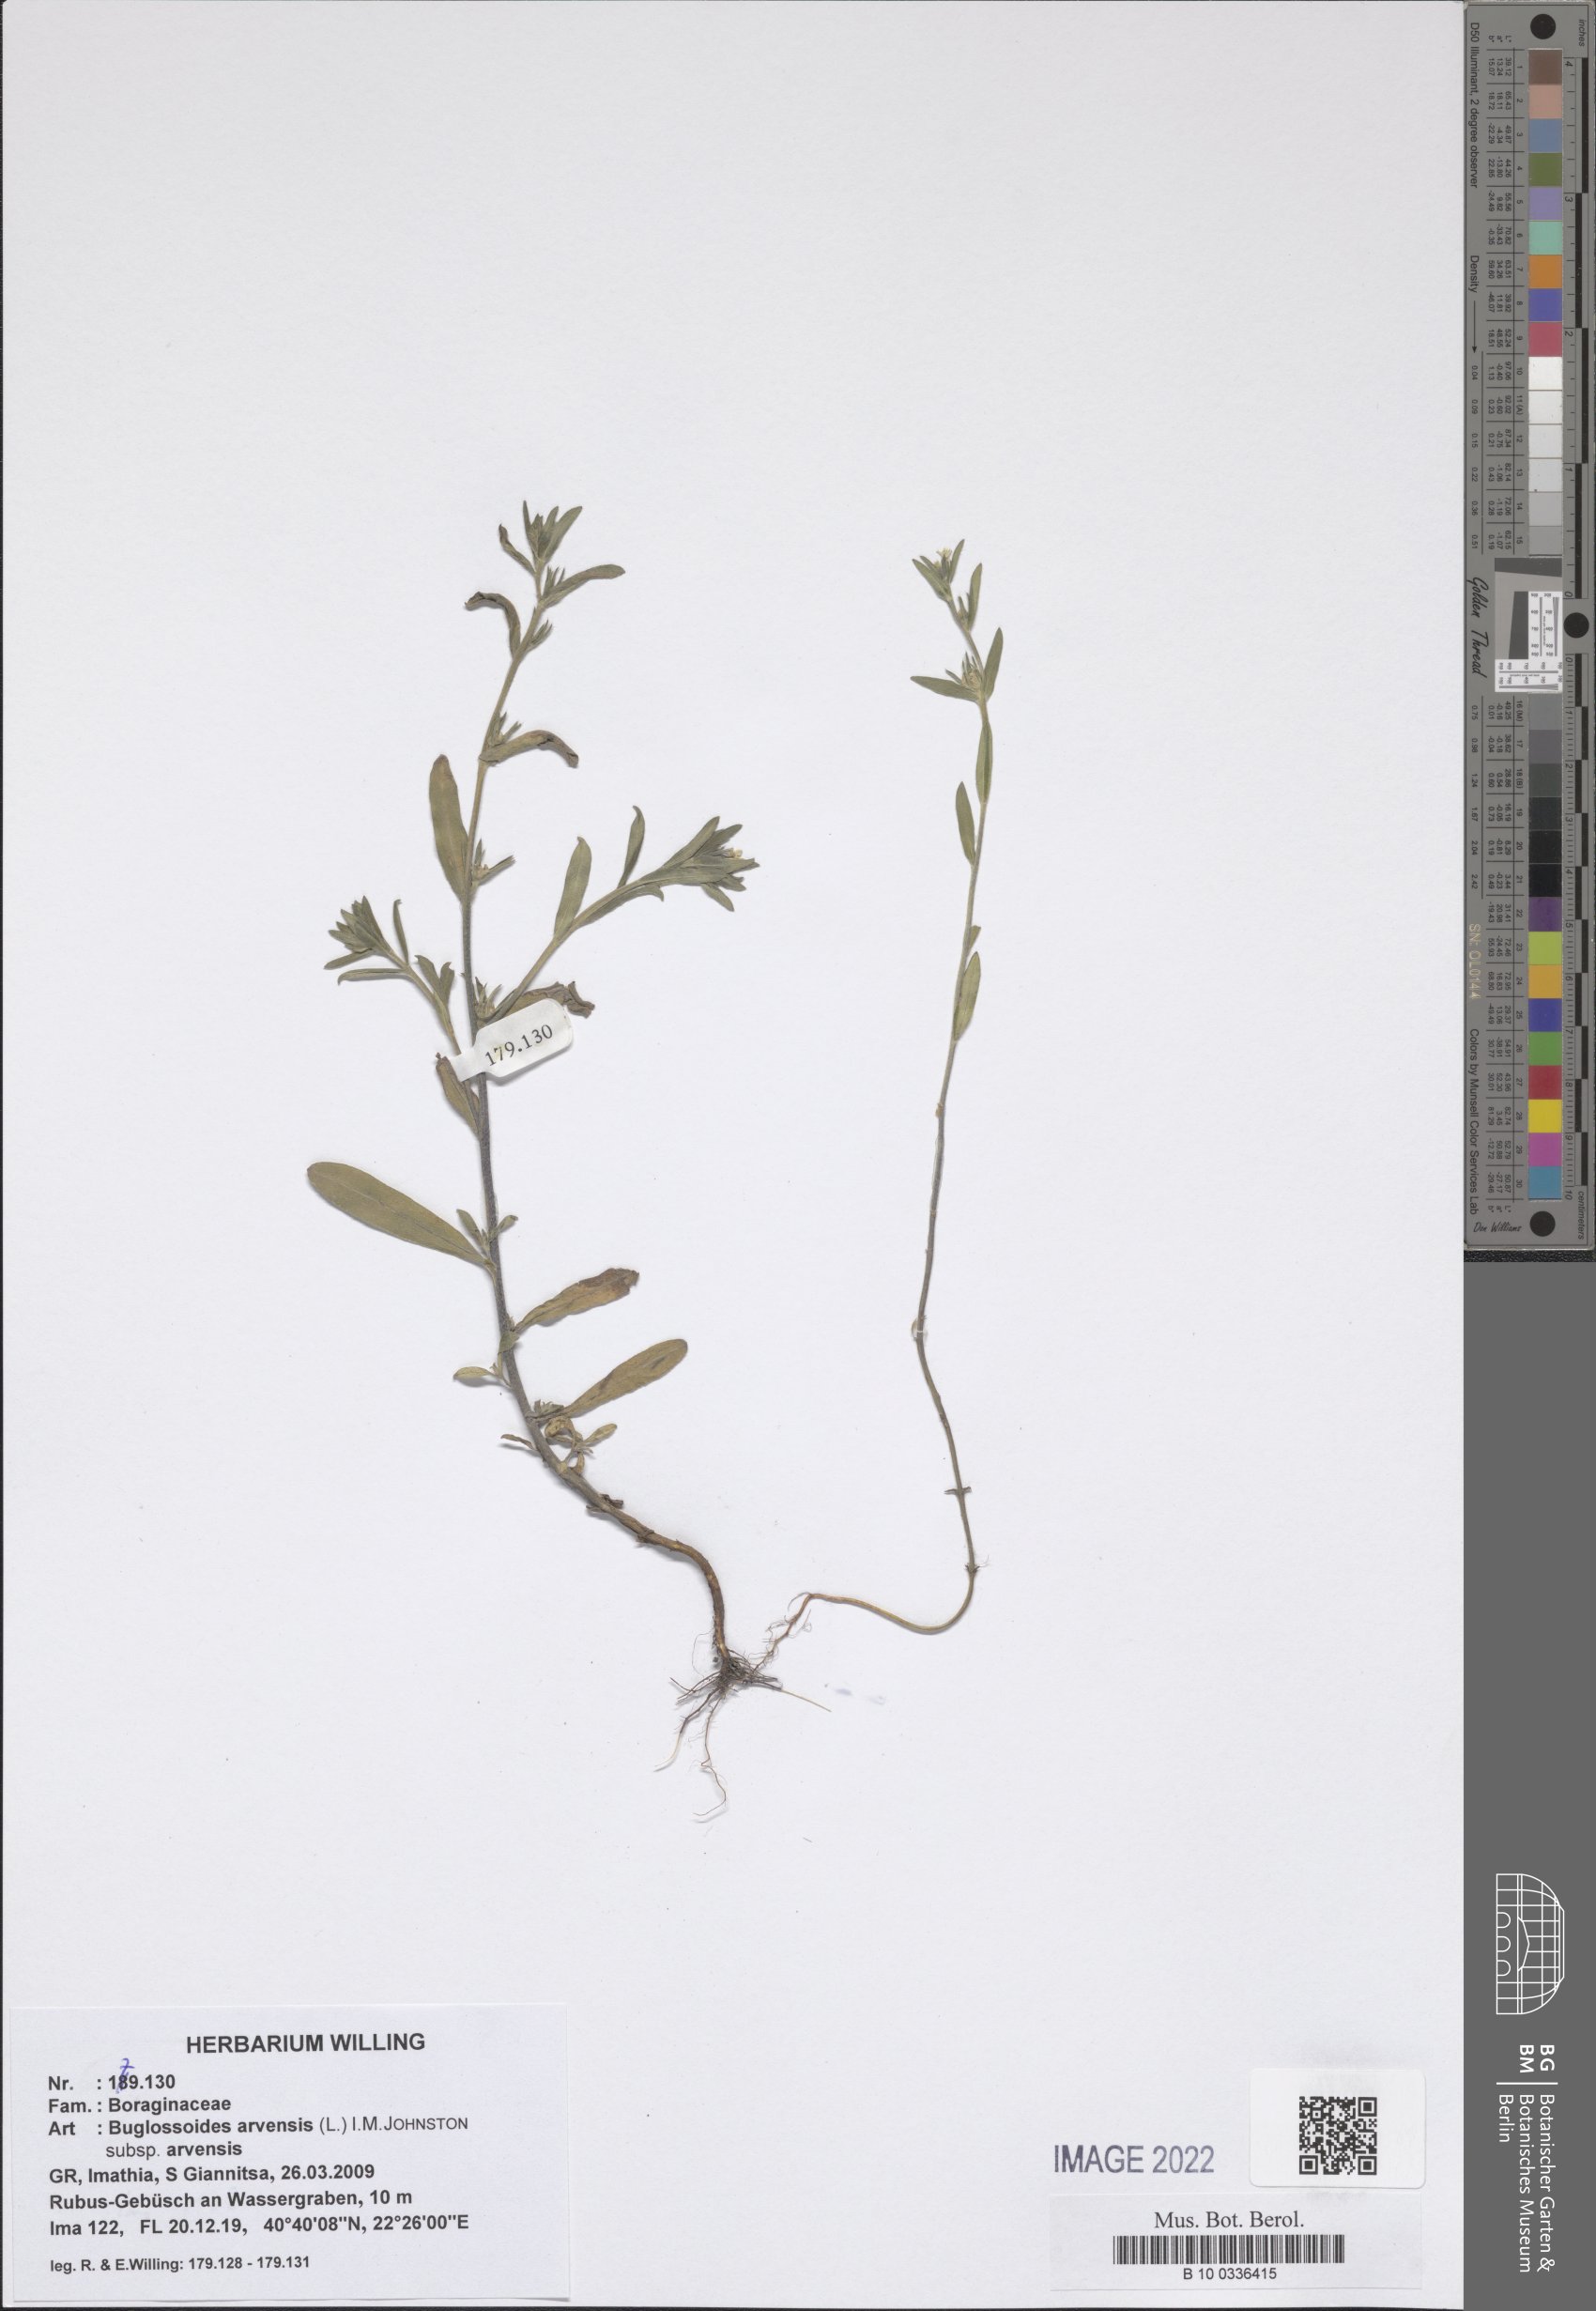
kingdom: Plantae
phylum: Tracheophyta
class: Magnoliopsida
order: Boraginales
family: Boraginaceae
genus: Buglossoides
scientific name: Buglossoides arvensis
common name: Corn gromwell
